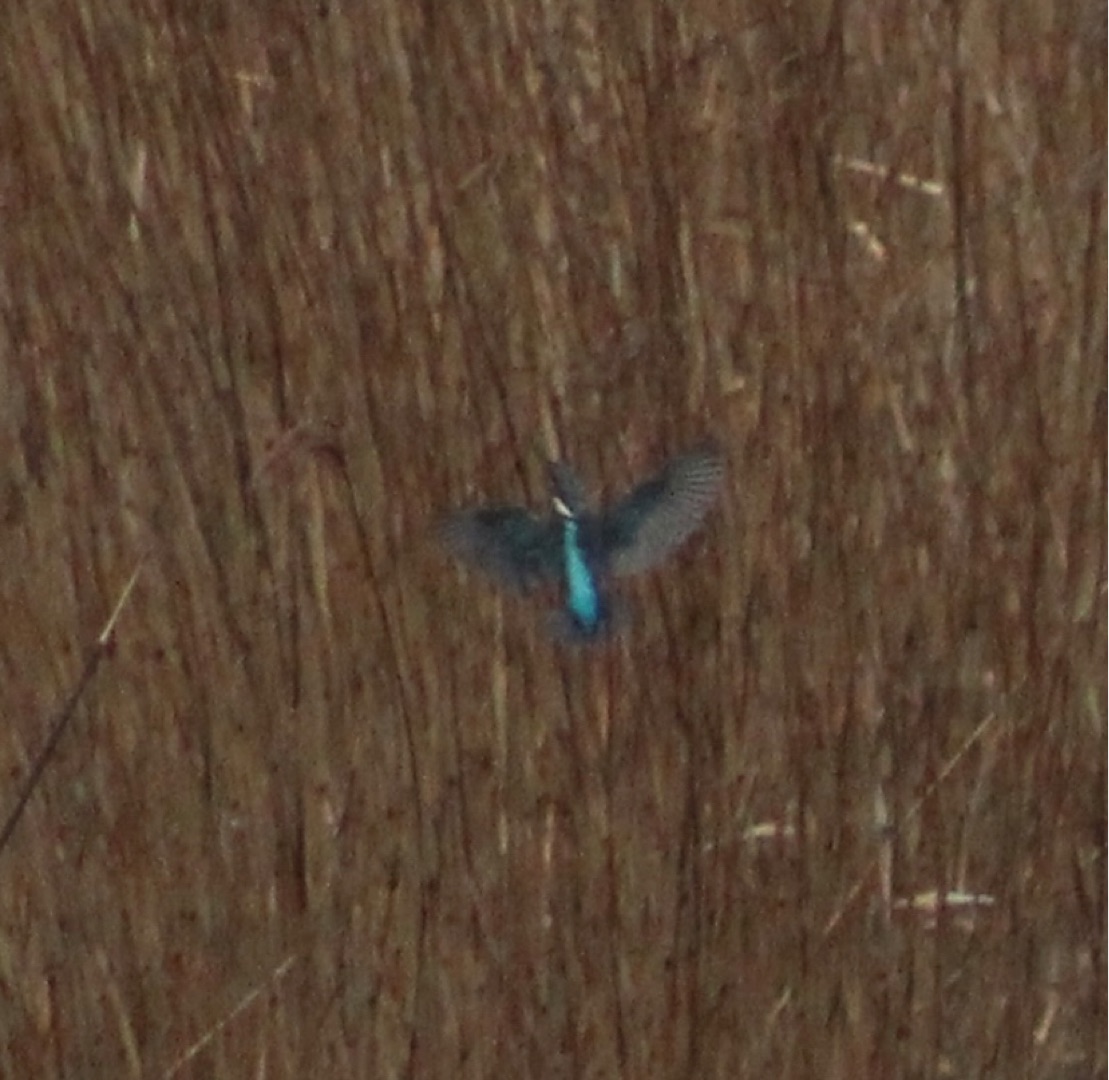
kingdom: Animalia
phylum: Chordata
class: Aves
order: Coraciiformes
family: Alcedinidae
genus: Alcedo
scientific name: Alcedo atthis
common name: Isfugl
